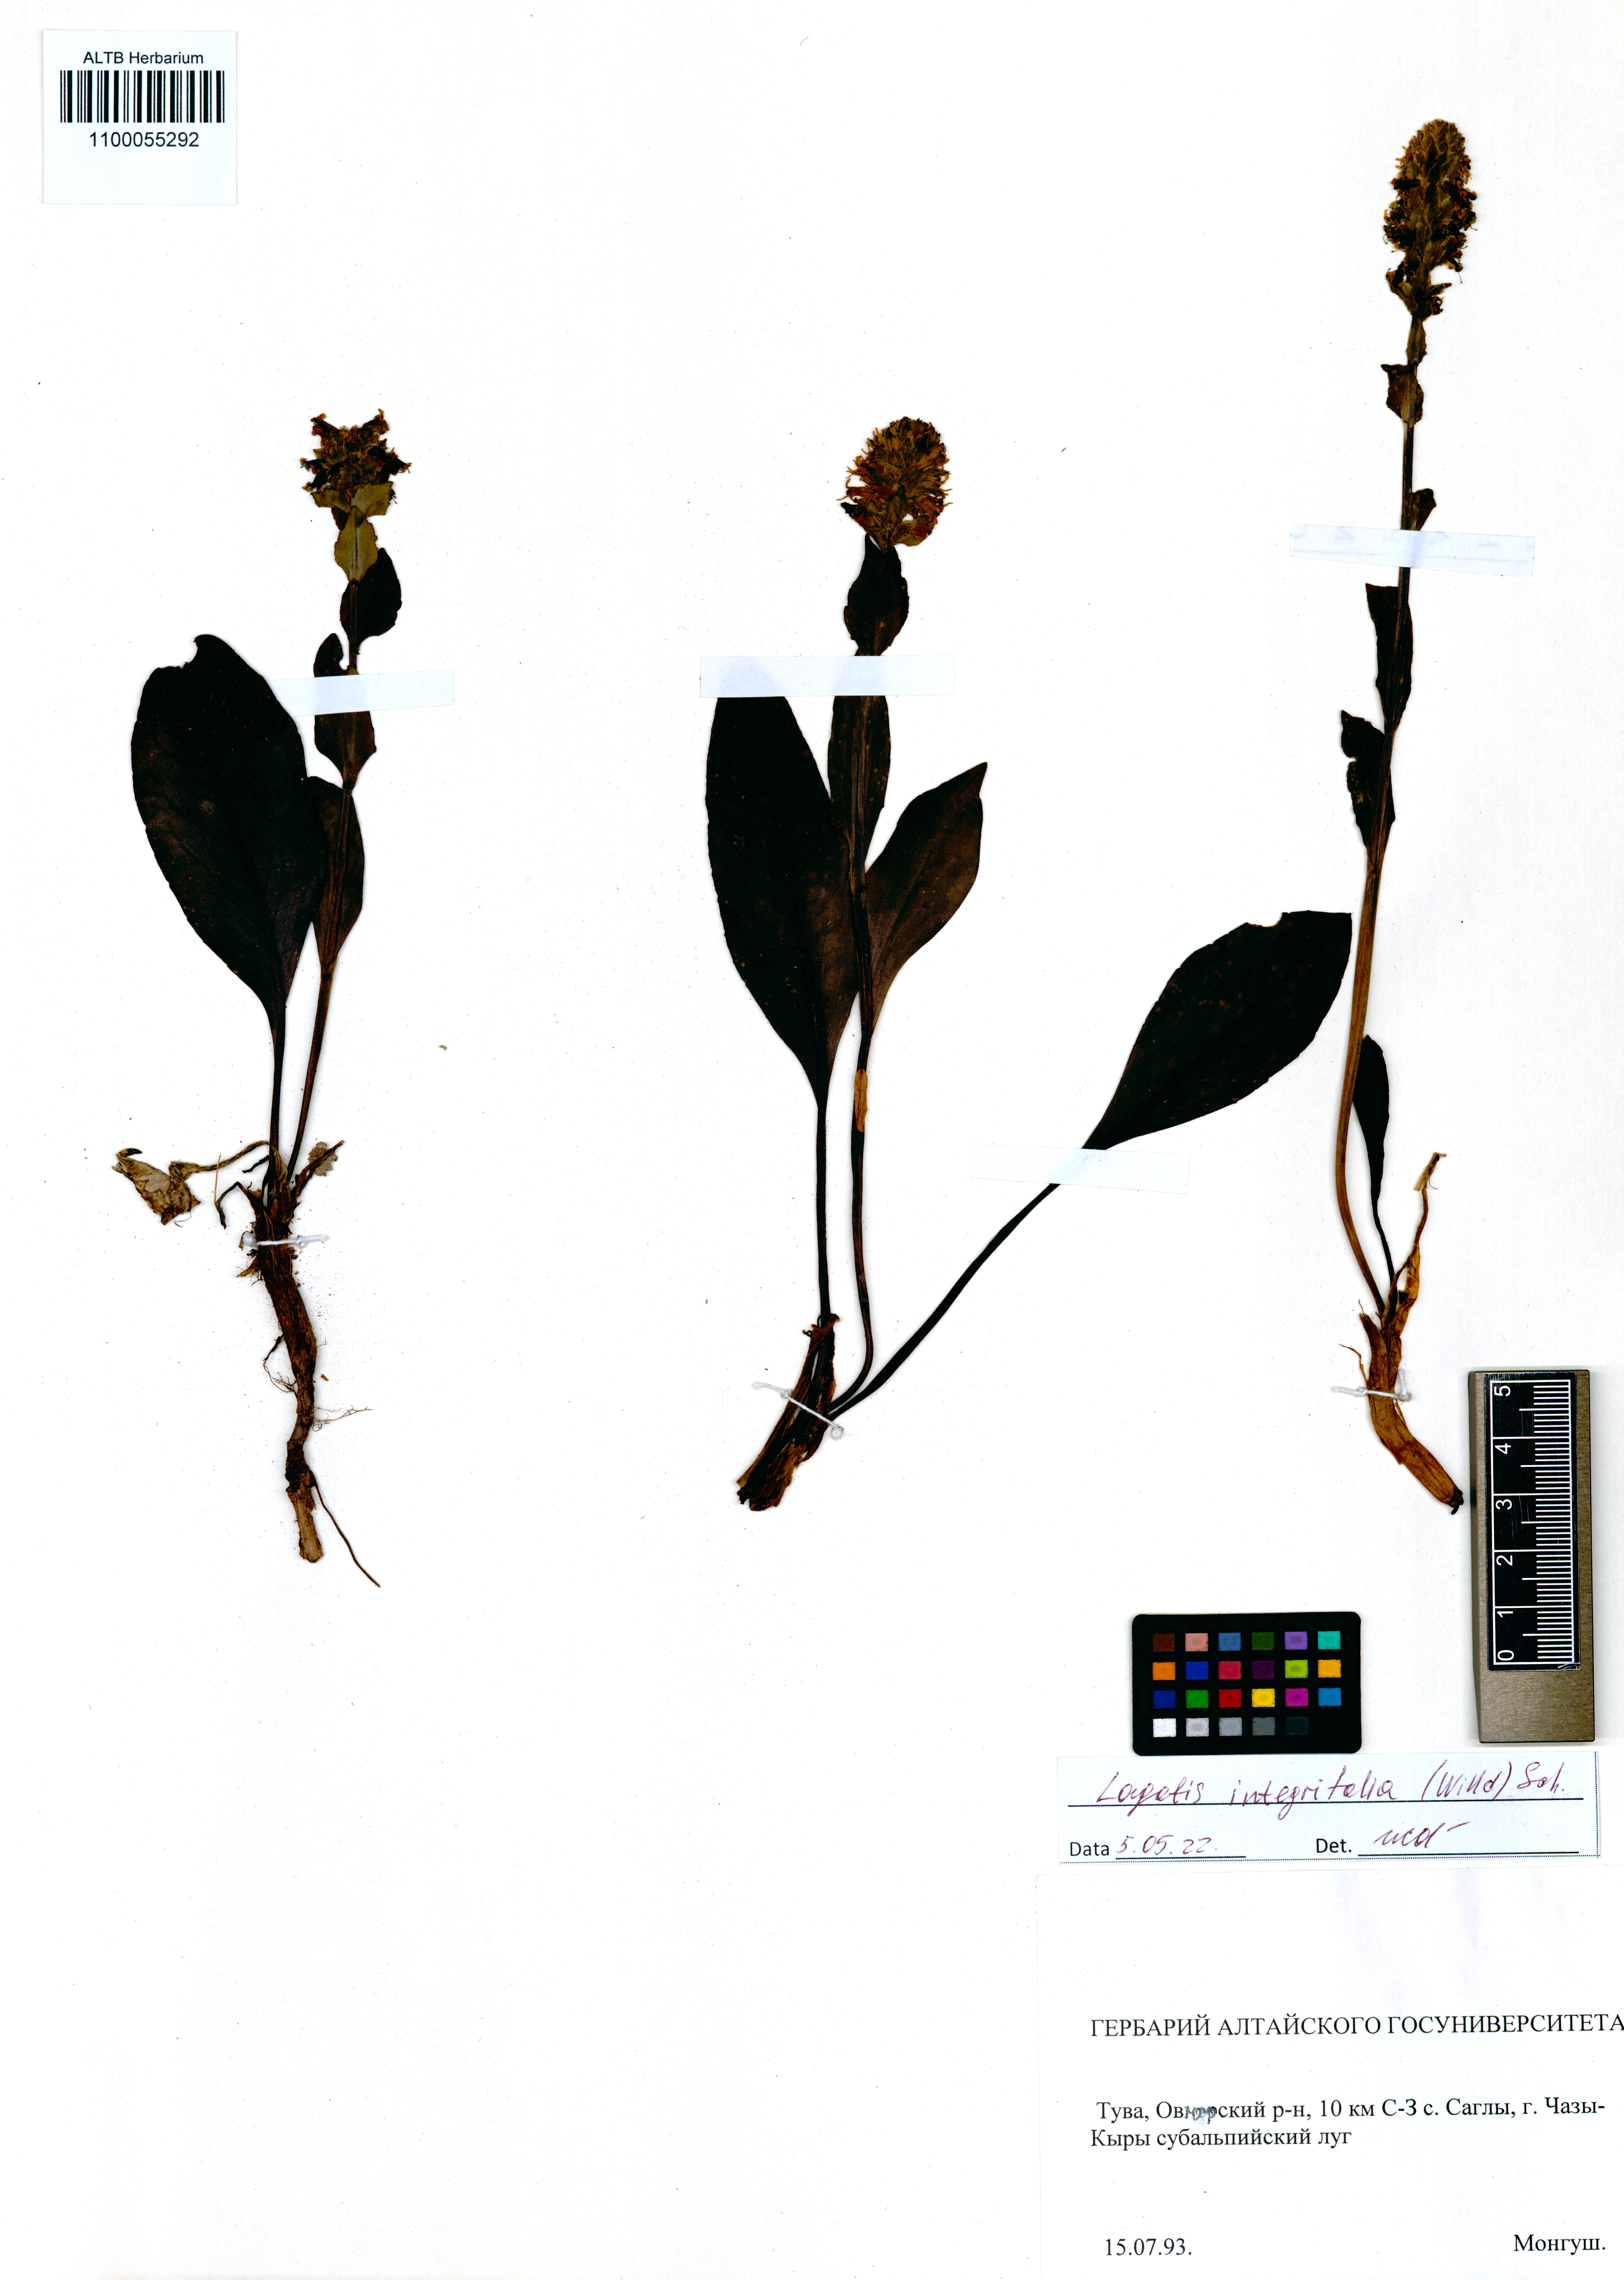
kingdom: Plantae
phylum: Tracheophyta
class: Magnoliopsida
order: Lamiales
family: Plantaginaceae
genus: Lagotis
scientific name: Lagotis integrifolia
